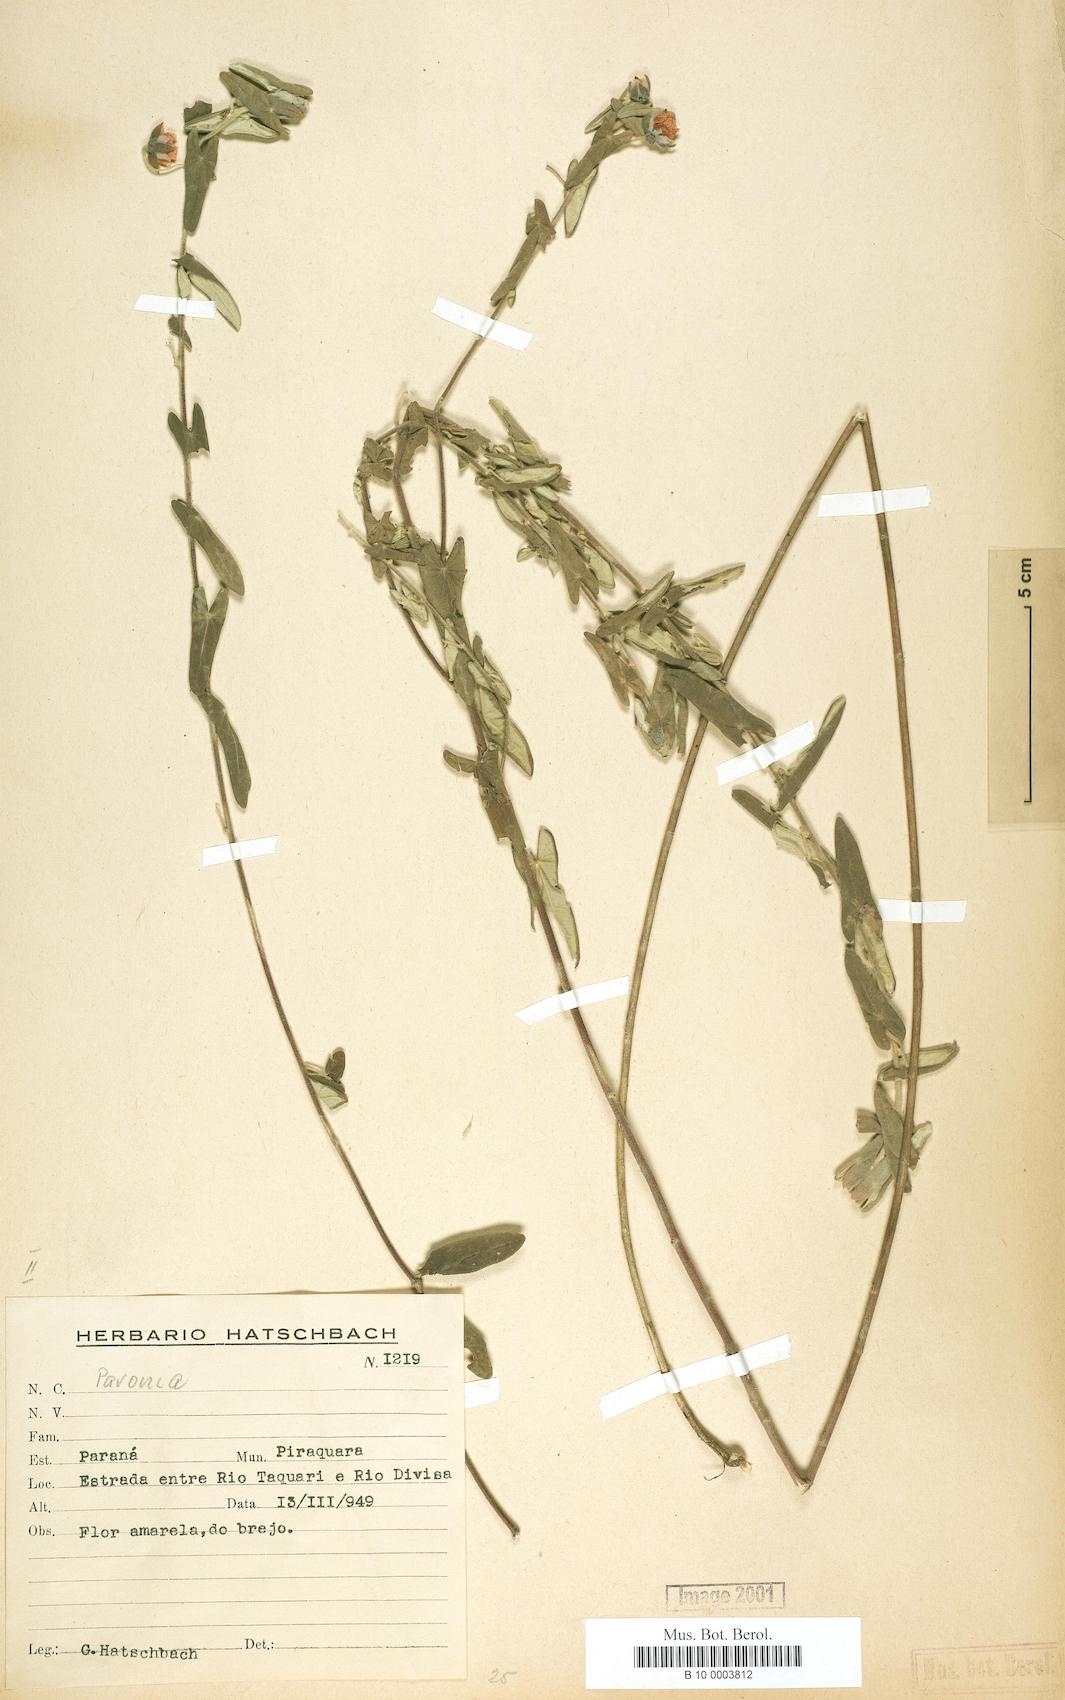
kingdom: Plantae
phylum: Tracheophyta
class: Magnoliopsida
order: Malvales
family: Malvaceae
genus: Pavonia
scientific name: Pavonia
